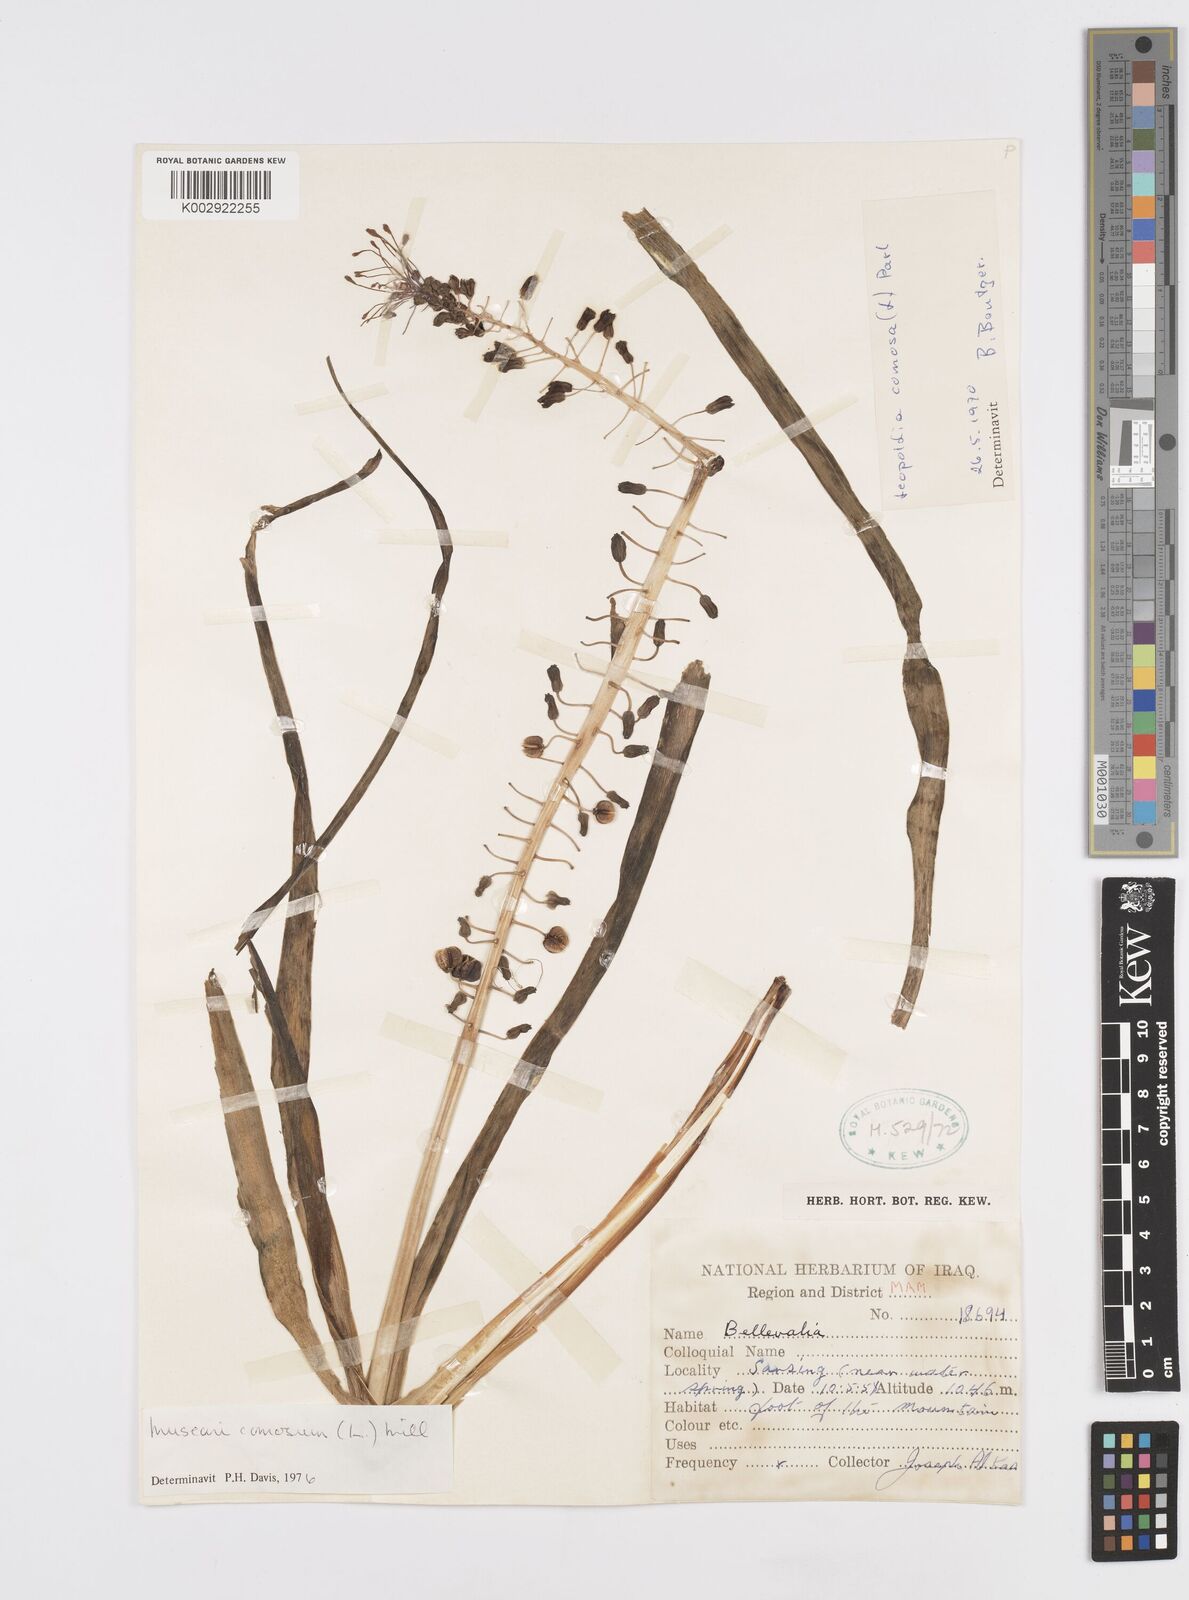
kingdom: Plantae
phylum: Tracheophyta
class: Liliopsida
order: Asparagales
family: Asparagaceae
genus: Muscari
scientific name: Muscari comosum
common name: Tassel hyacinth
